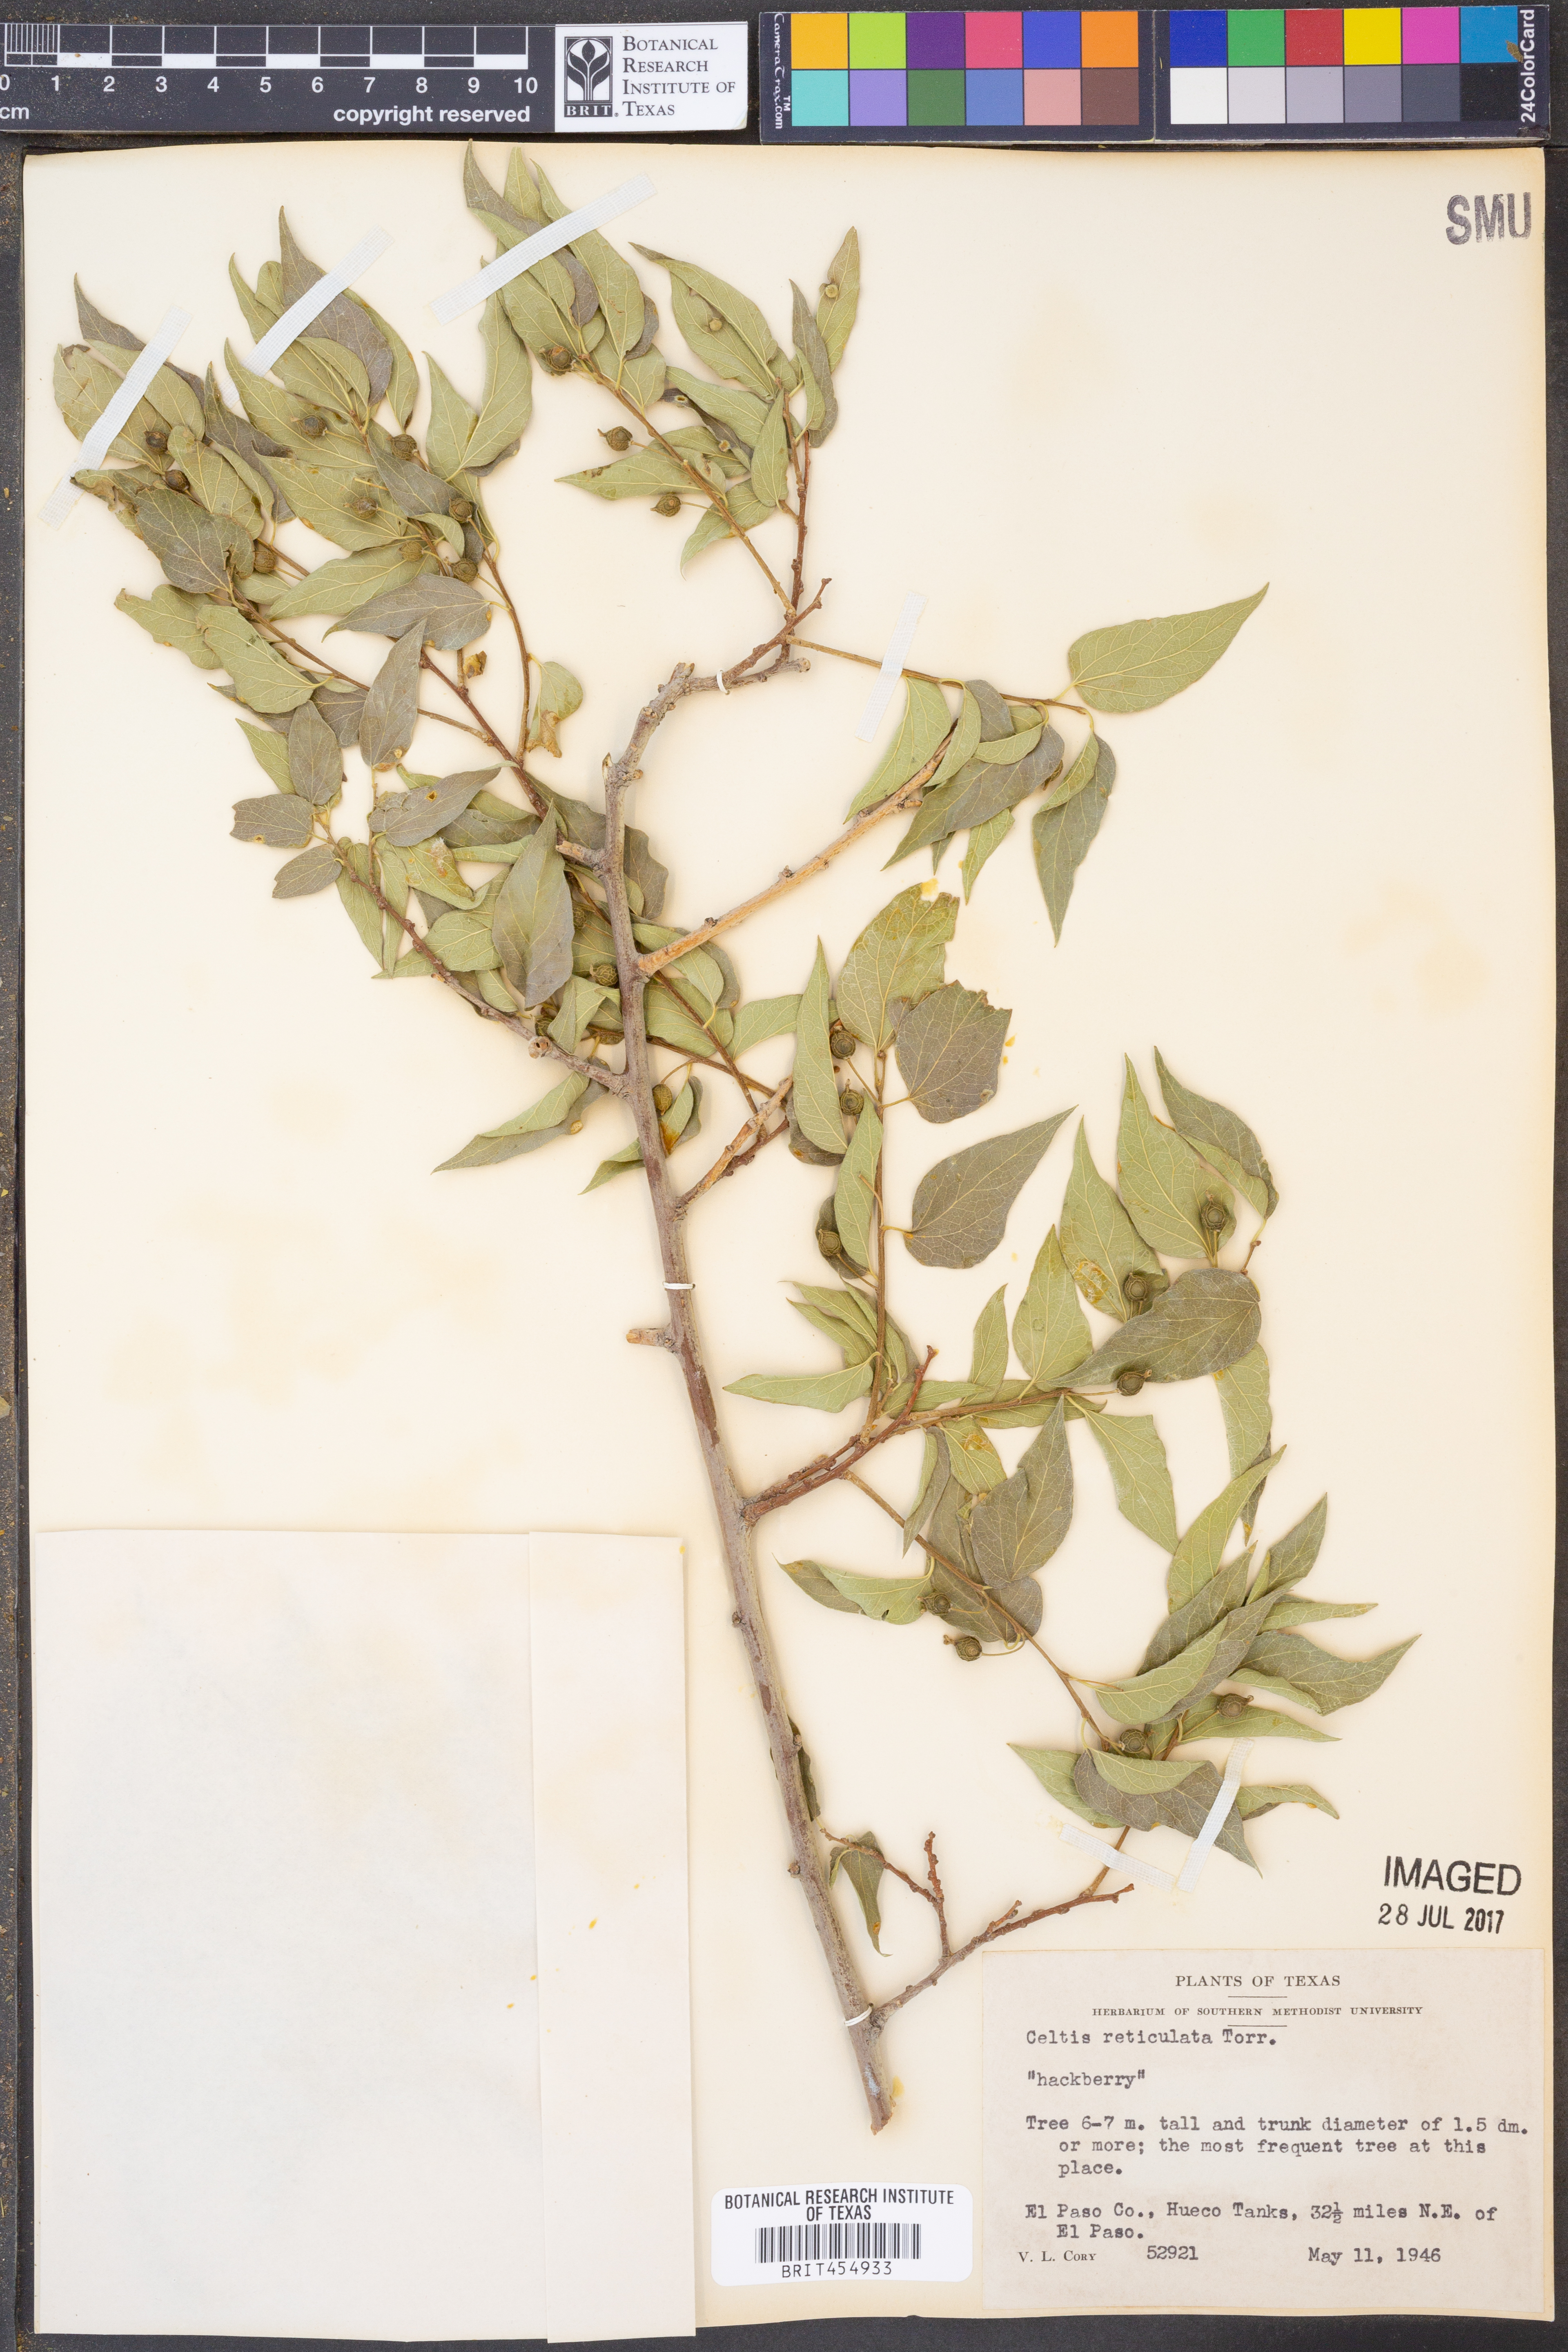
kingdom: Plantae
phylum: Tracheophyta
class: Magnoliopsida
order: Rosales
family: Cannabaceae
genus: Celtis
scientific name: Celtis reticulata
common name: Netleaf hackberry
